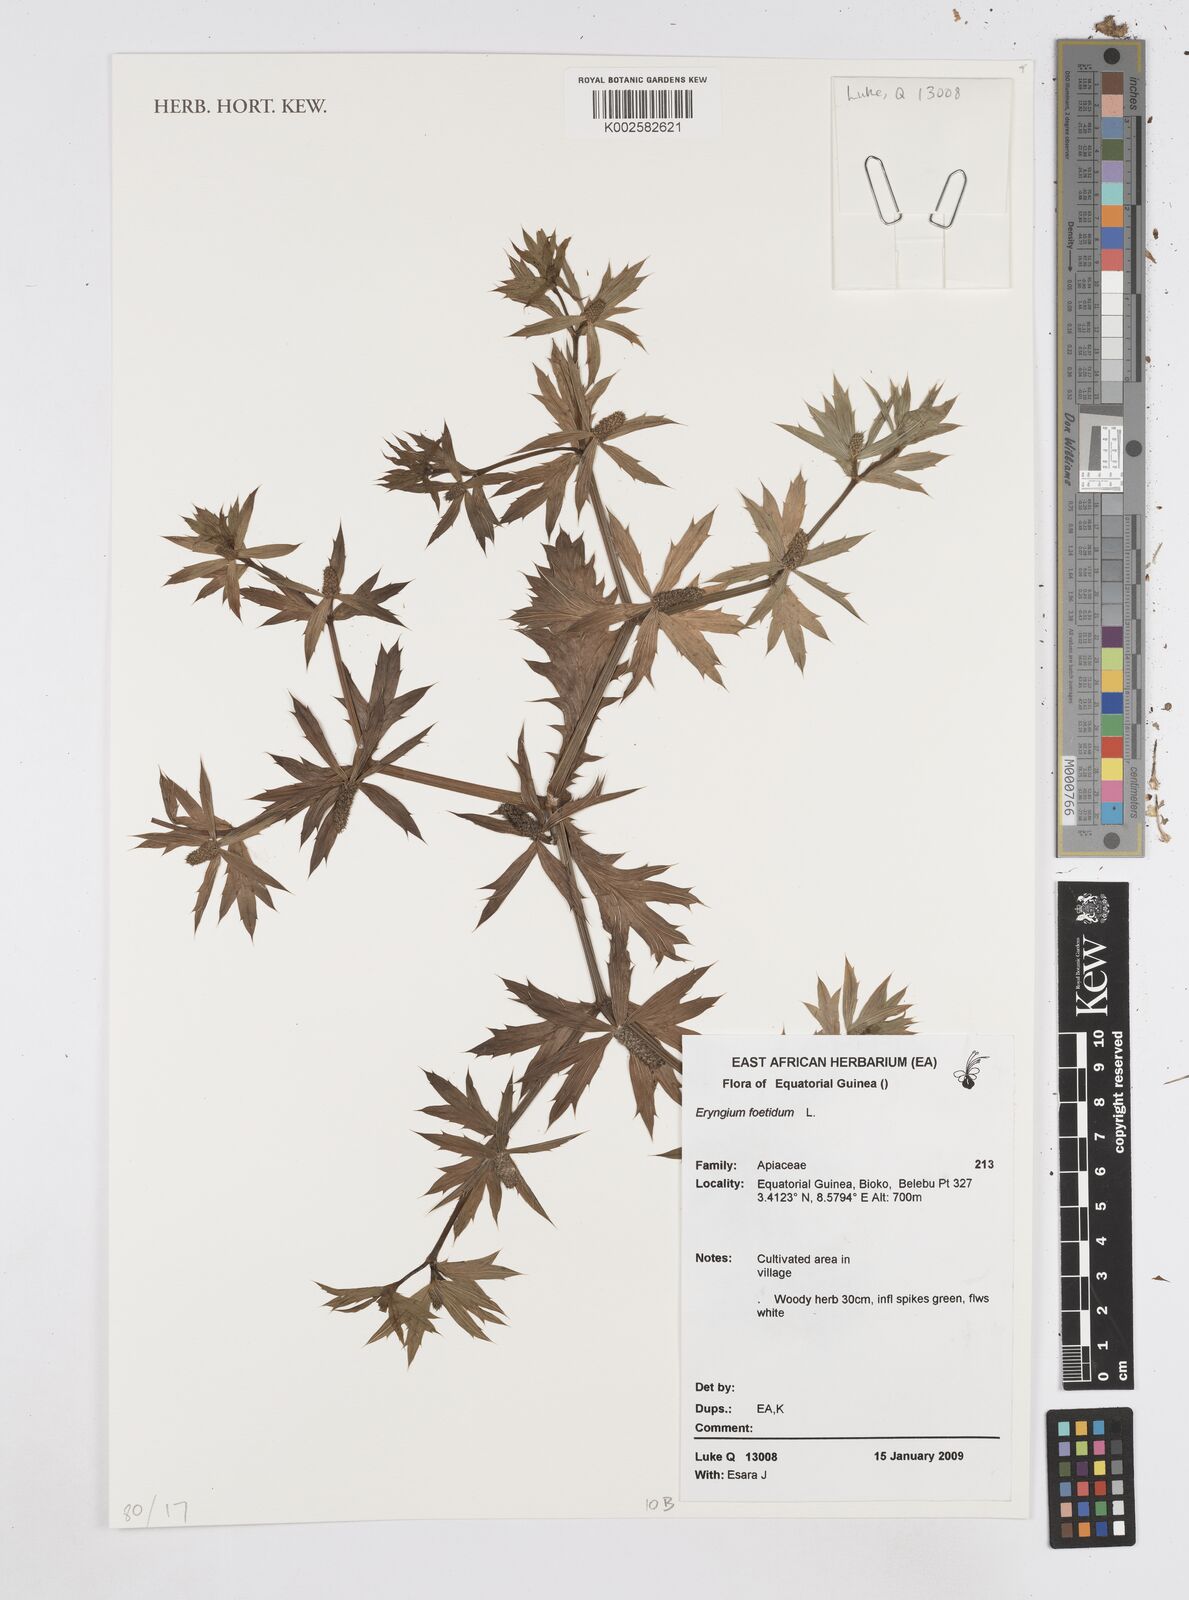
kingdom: Plantae
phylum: Tracheophyta
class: Magnoliopsida
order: Apiales
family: Apiaceae
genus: Eryngium
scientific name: Eryngium foetidum
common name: Fitweed
